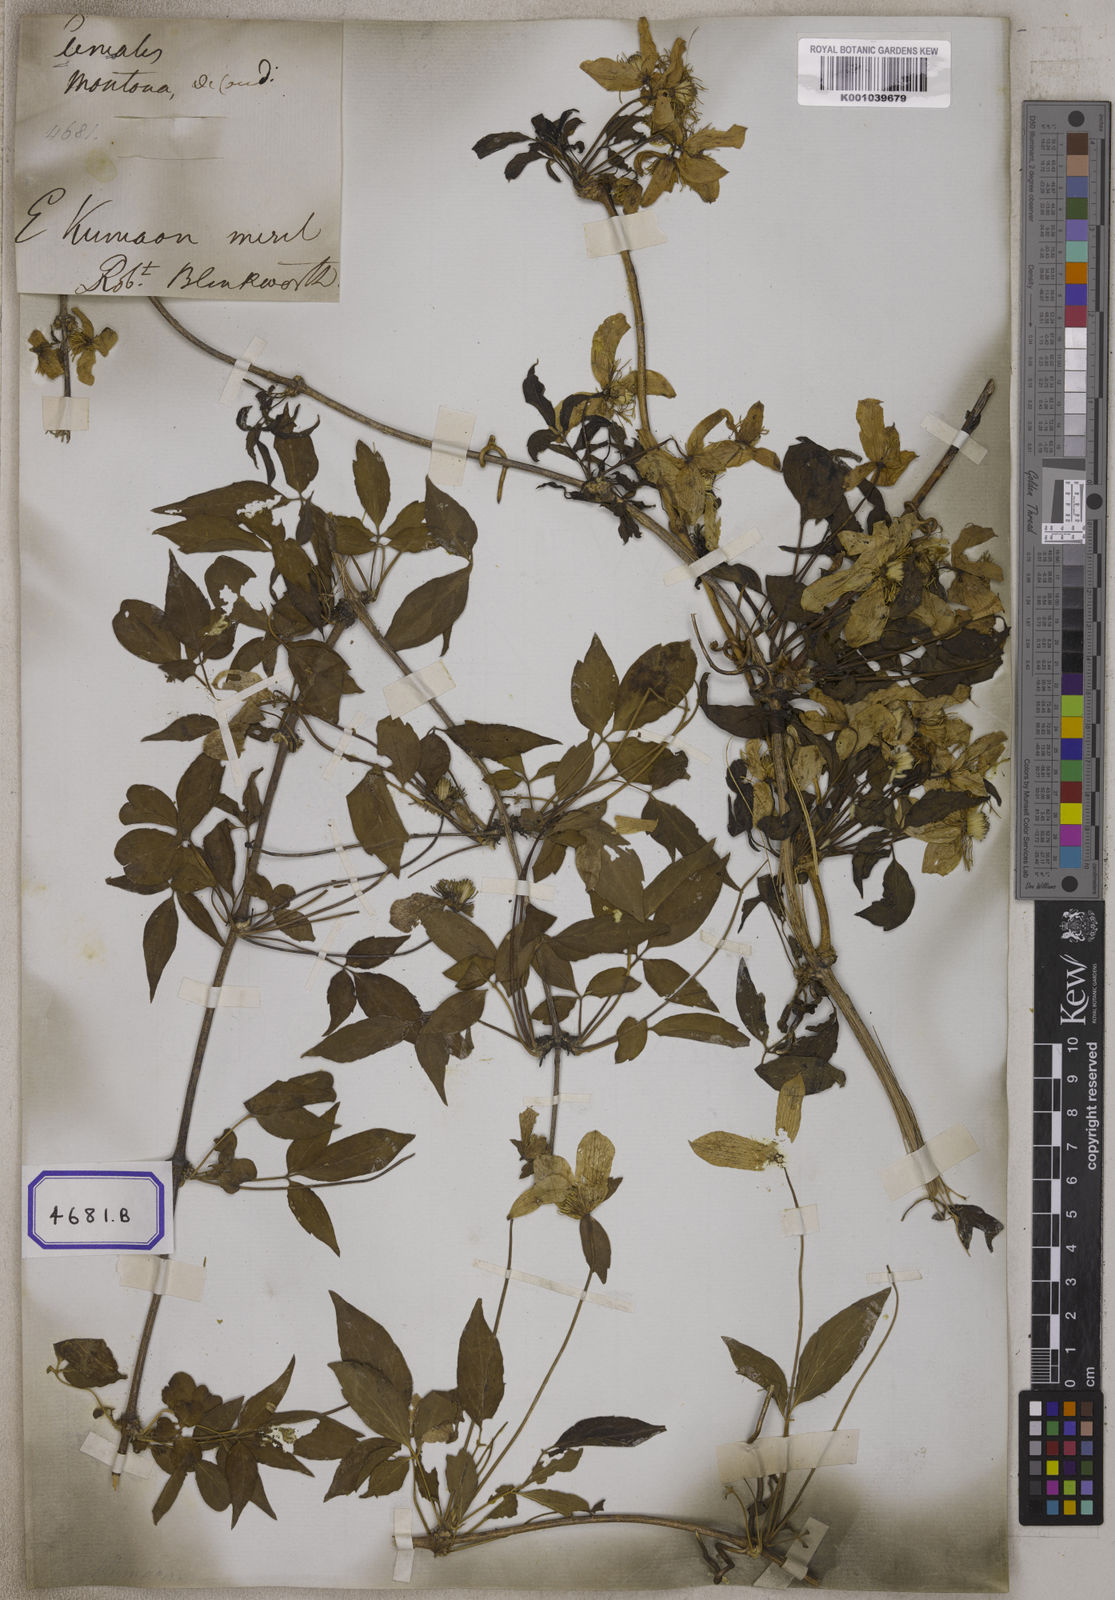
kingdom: Plantae
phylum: Tracheophyta
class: Magnoliopsida
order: Ranunculales
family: Ranunculaceae
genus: Clematis
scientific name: Clematis montana
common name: Himalayan clematis
